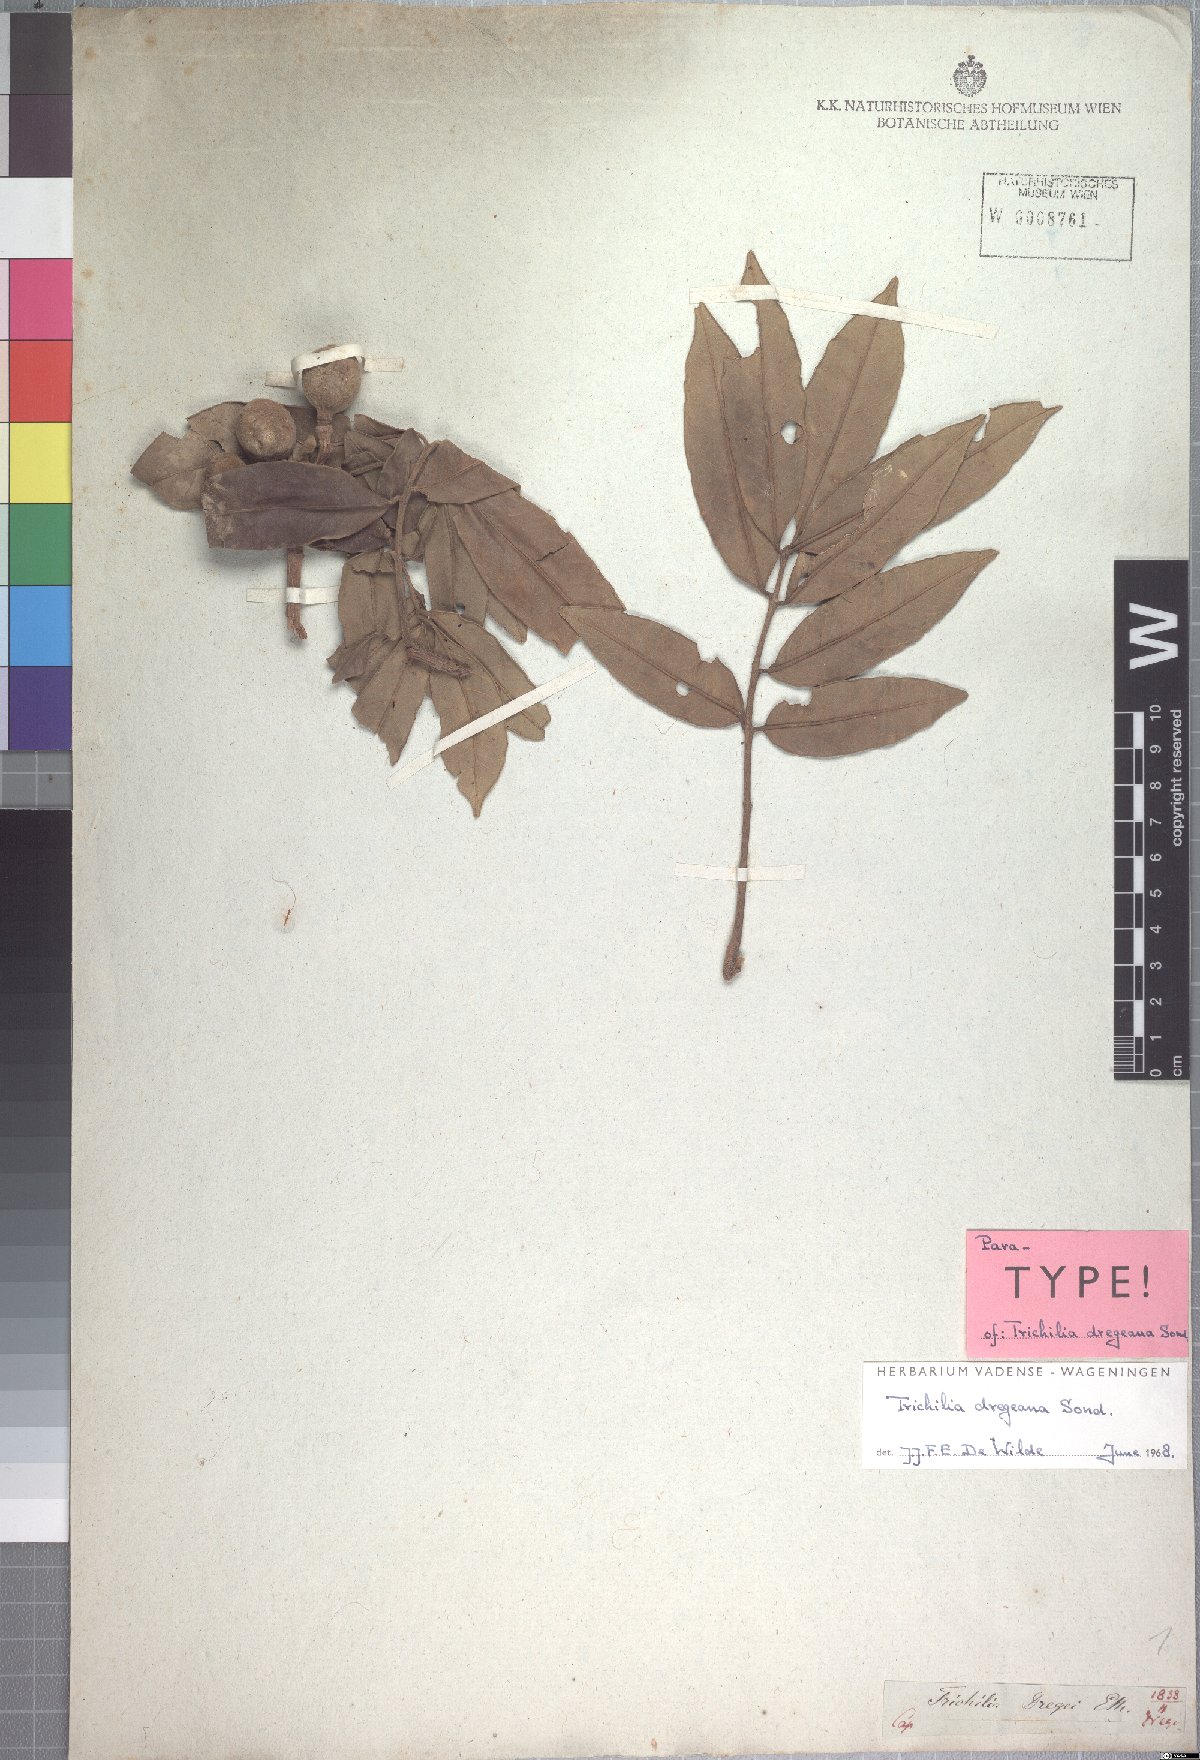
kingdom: Plantae
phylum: Tracheophyta
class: Magnoliopsida
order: Sapindales
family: Meliaceae
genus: Trichilia
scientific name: Trichilia dregeana
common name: Christmas-bells
